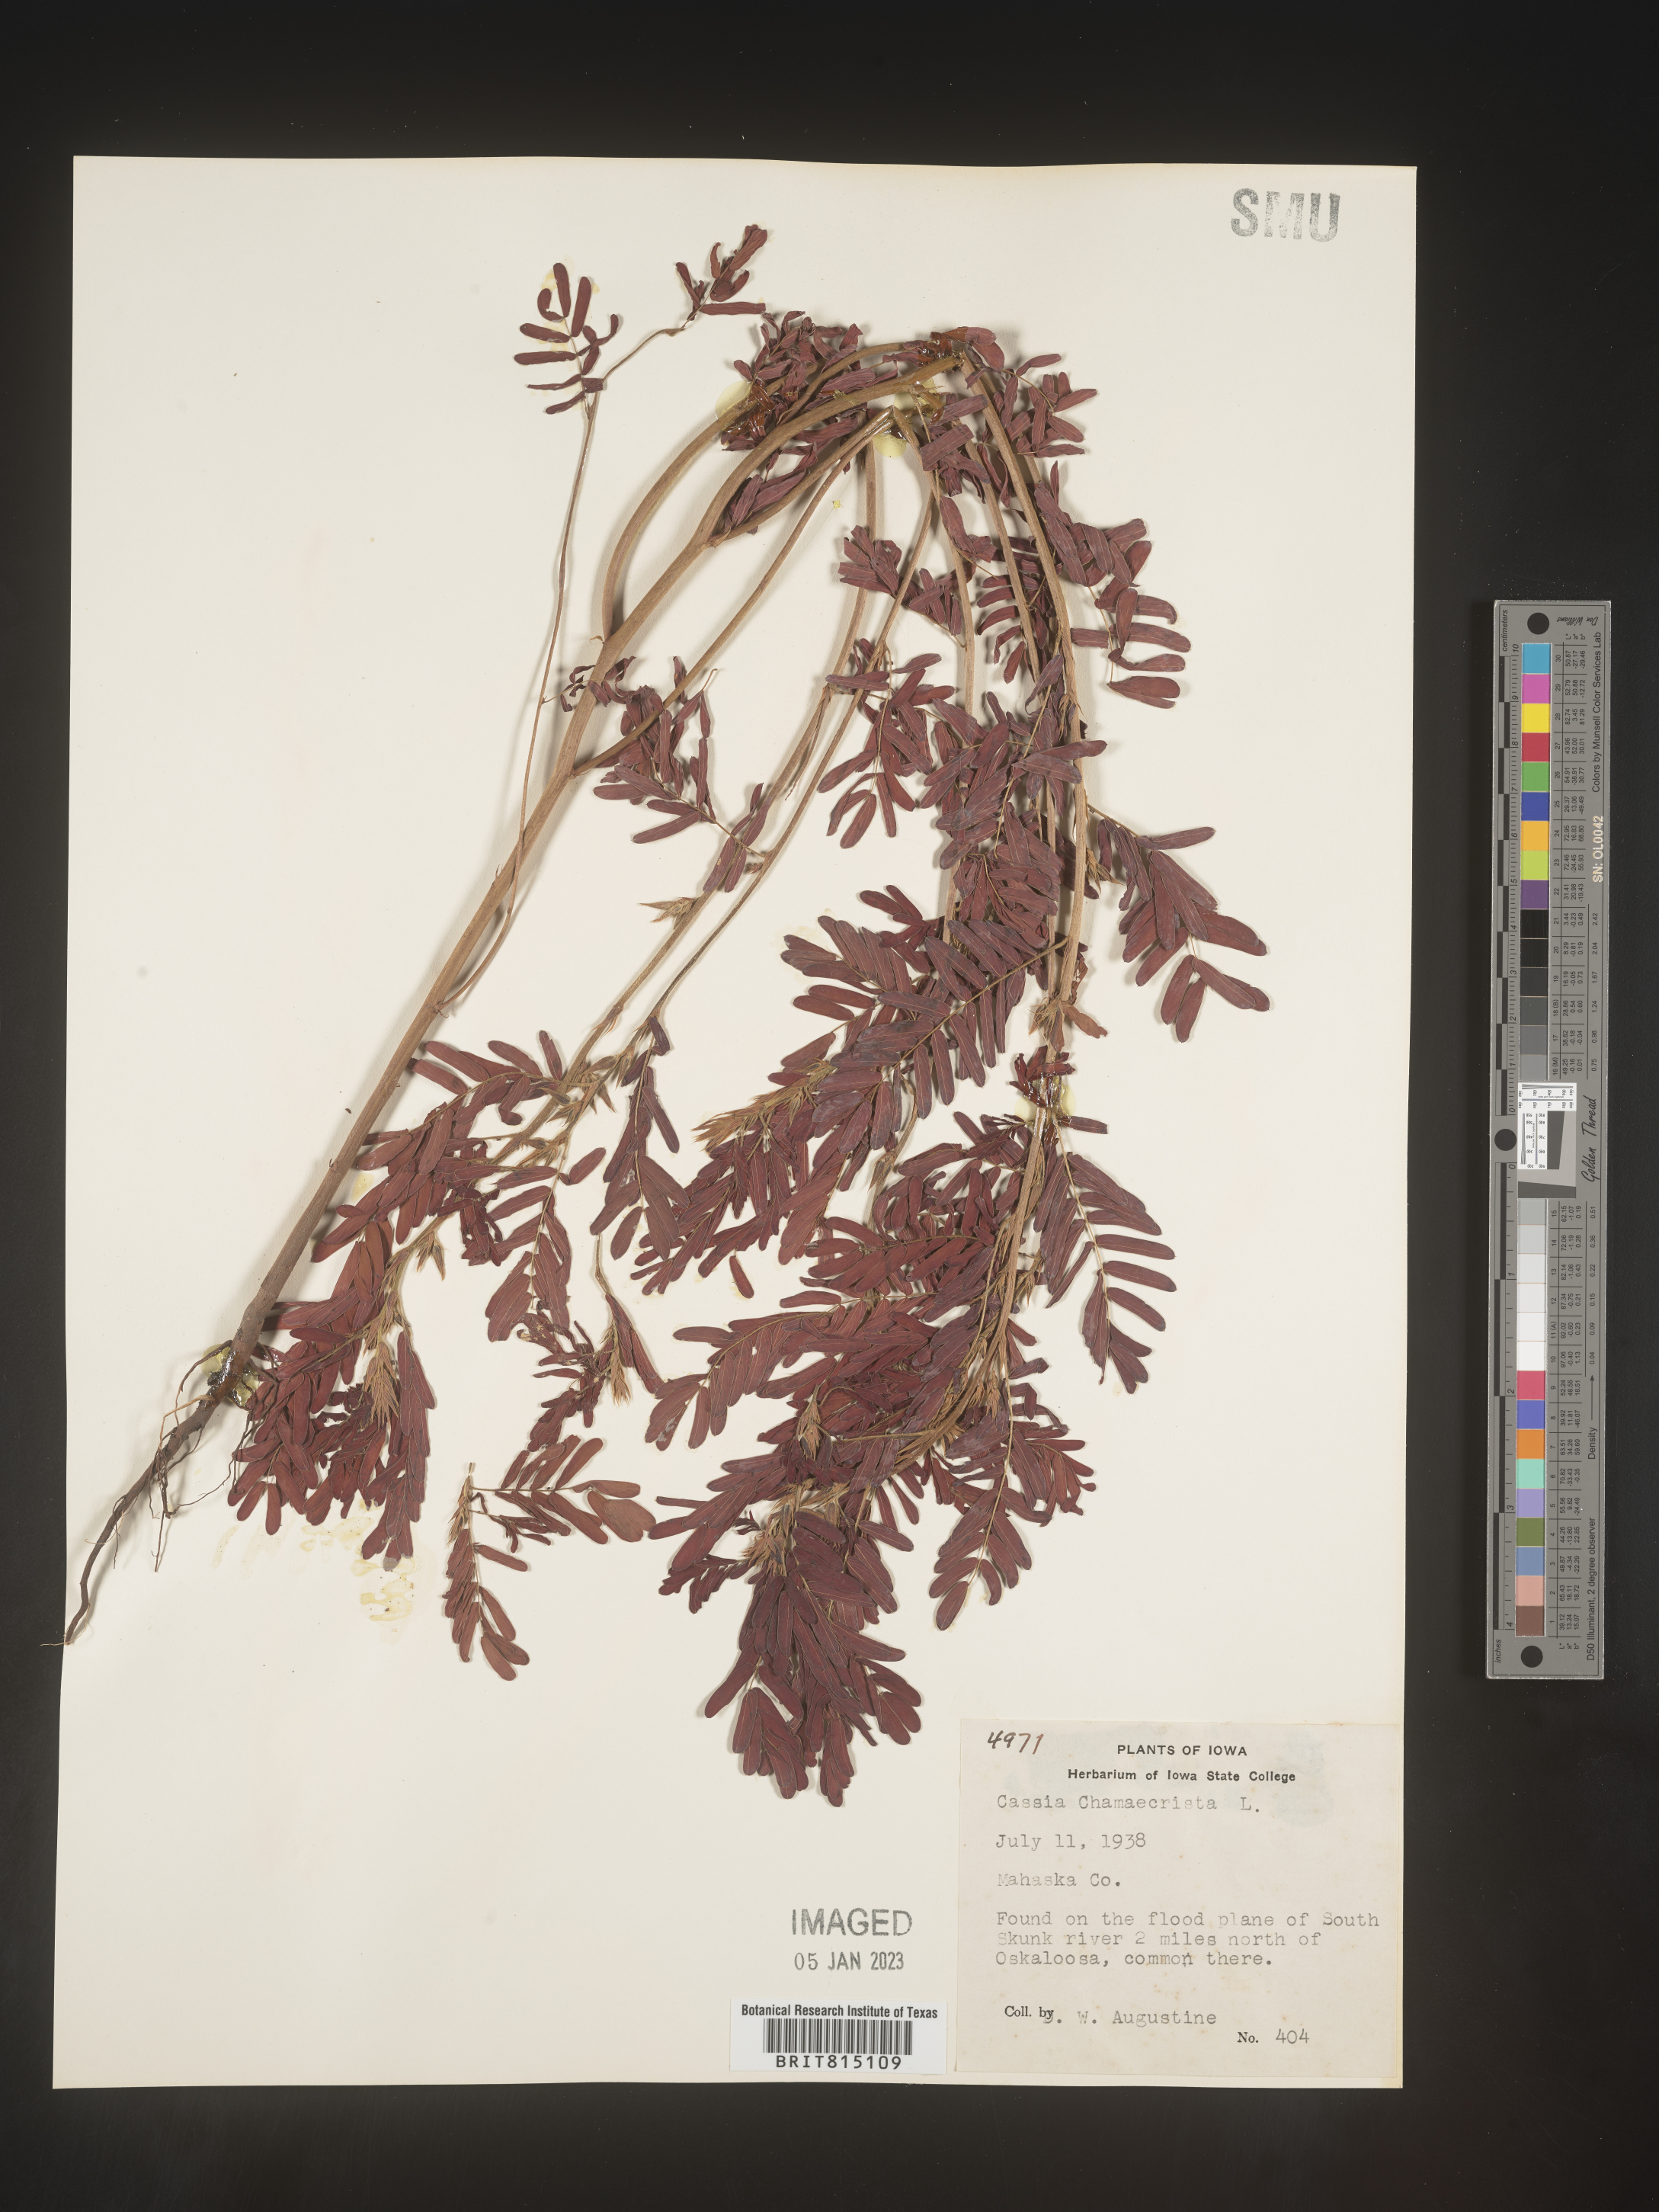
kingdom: Plantae
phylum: Tracheophyta
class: Magnoliopsida
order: Fabales
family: Fabaceae
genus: Chamaecrista
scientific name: Chamaecrista fasciculata
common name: Golden cassia
